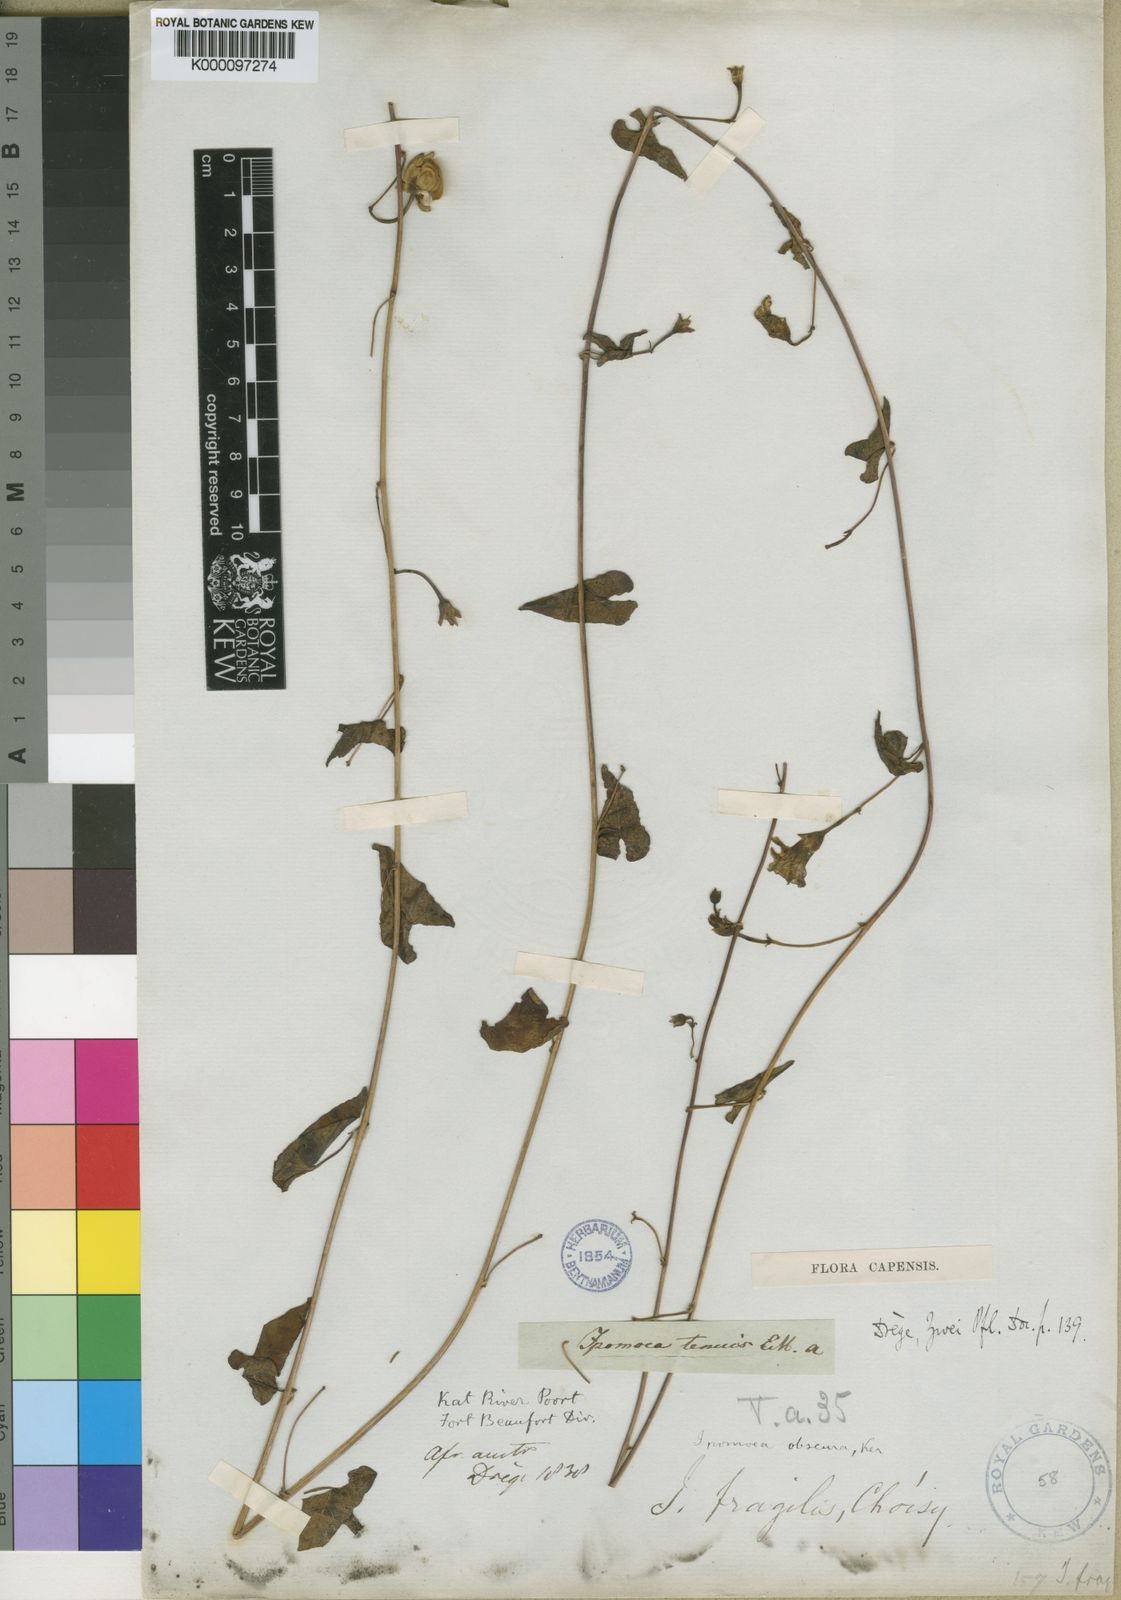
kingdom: Plantae
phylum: Tracheophyta
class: Magnoliopsida
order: Solanales
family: Convolvulaceae
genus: Ipomoea
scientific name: Ipomoea obscura
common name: Obscure morning-glory
